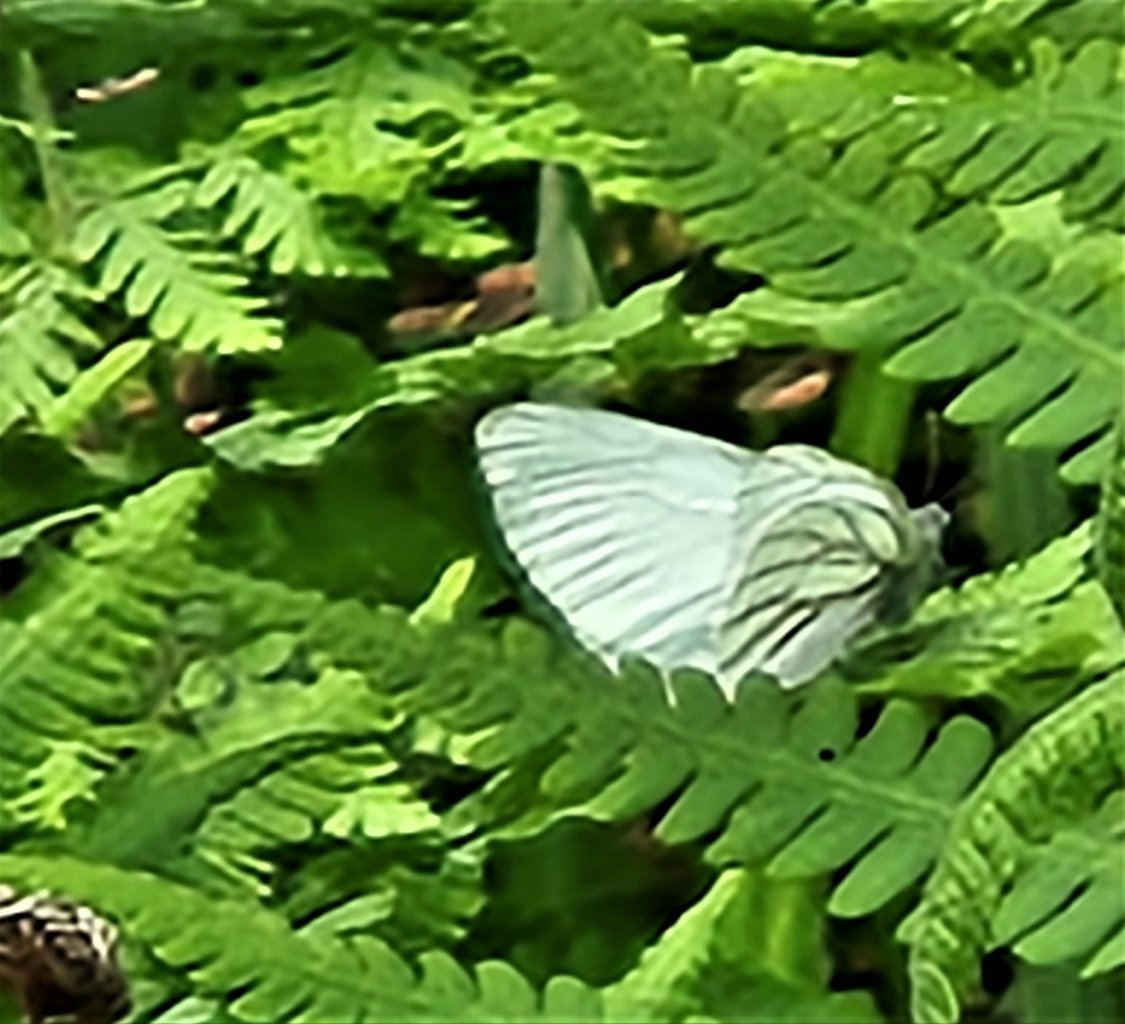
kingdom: Animalia
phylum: Arthropoda
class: Insecta
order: Lepidoptera
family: Pieridae
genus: Pieris
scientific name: Pieris oleracea
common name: Mustard White
